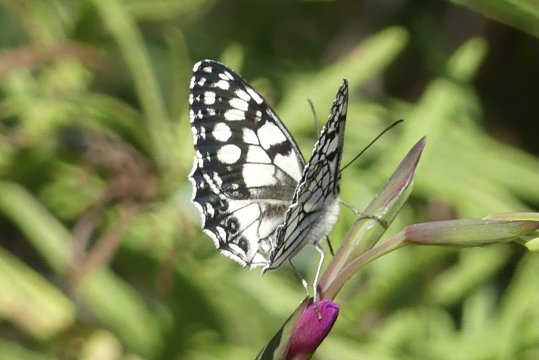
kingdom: Animalia
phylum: Arthropoda
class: Insecta
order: Lepidoptera
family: Nymphalidae
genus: Melanargia
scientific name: Melanargia ines
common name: Spanish Marbled White
